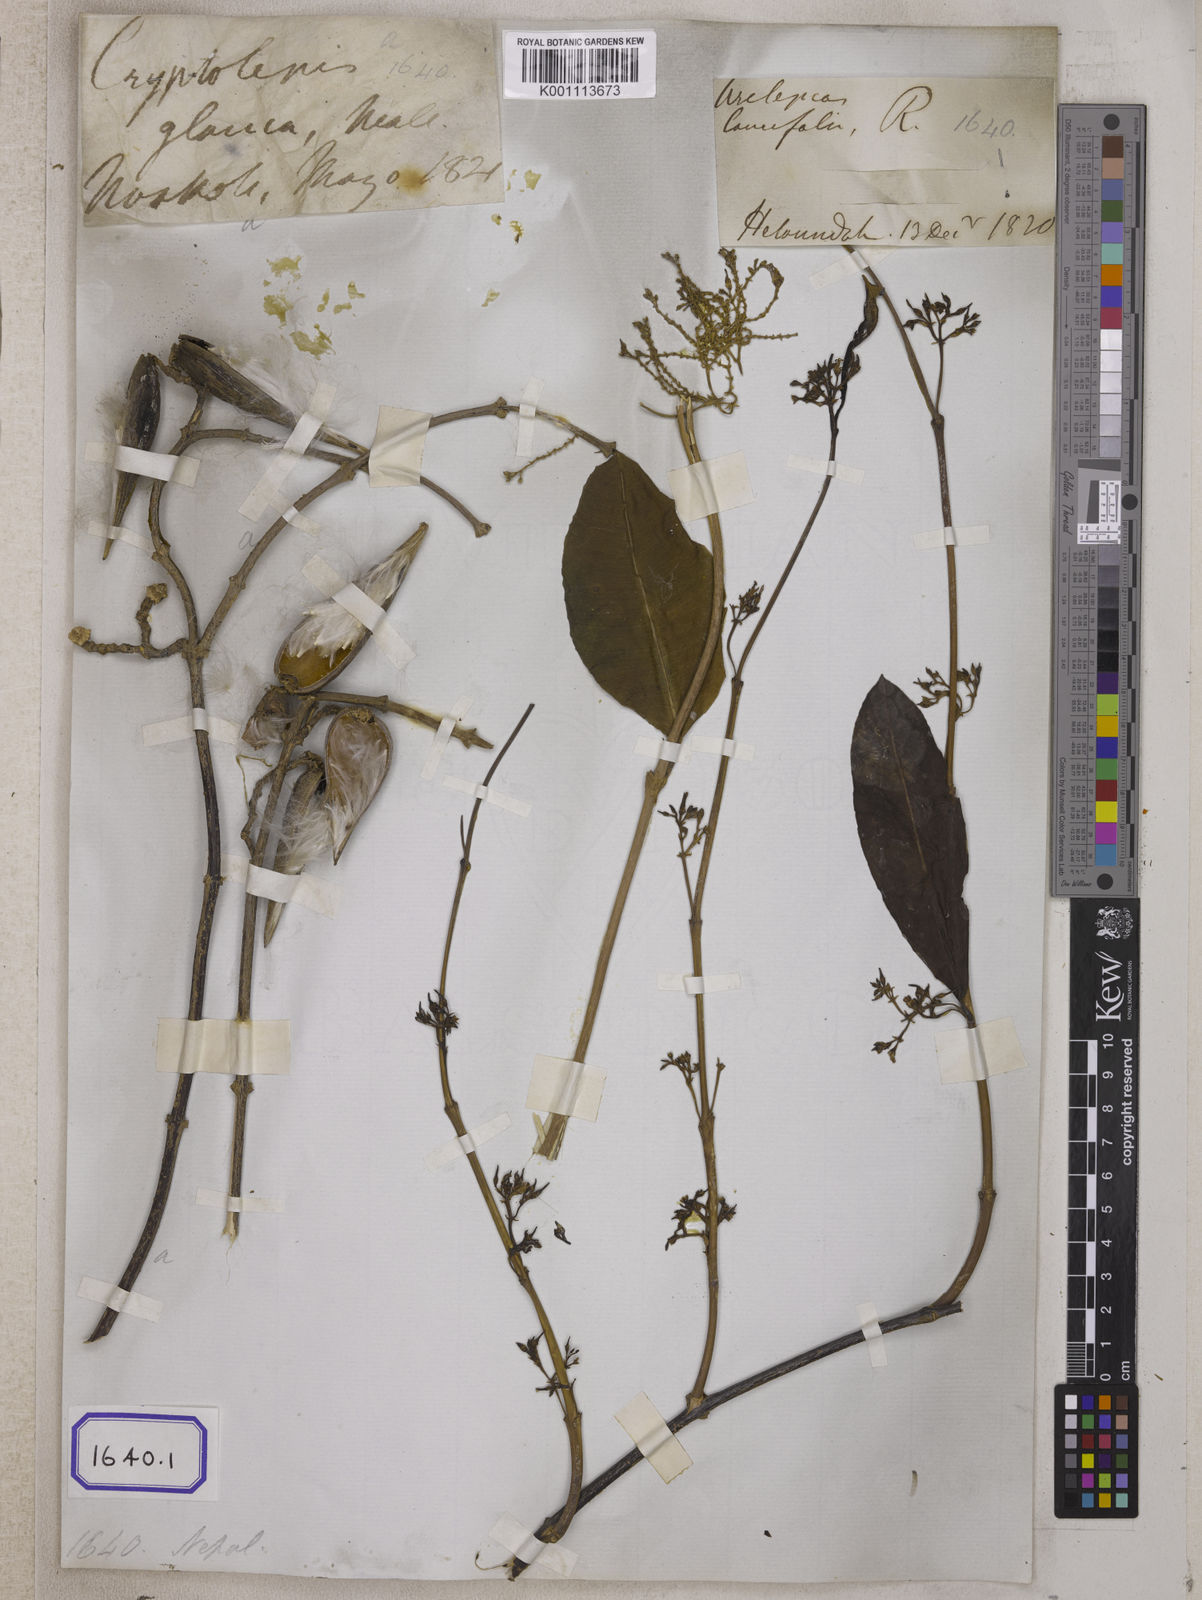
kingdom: Plantae
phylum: Tracheophyta
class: Magnoliopsida
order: Gentianales
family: Apocynaceae
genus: Cryptolepis
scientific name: Cryptolepis
